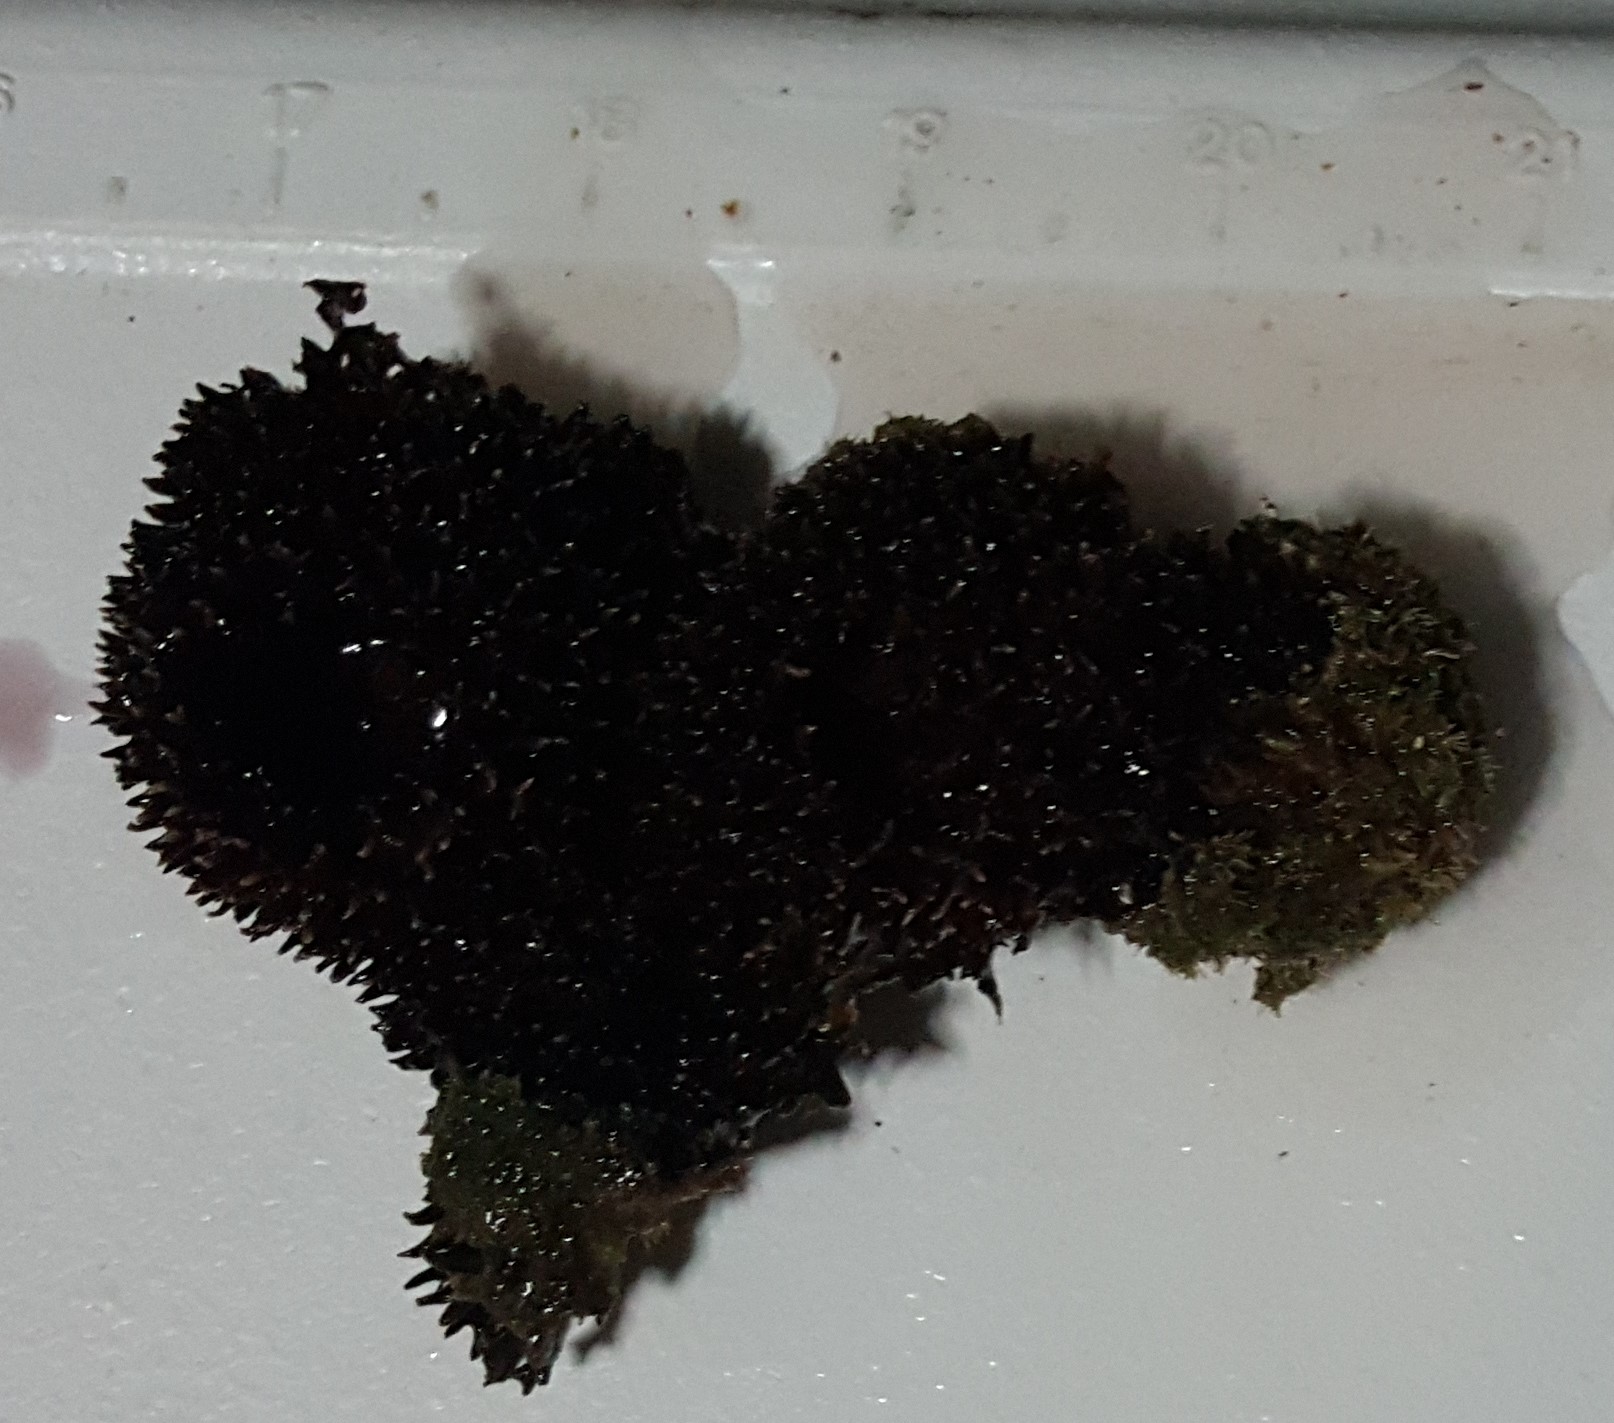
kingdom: Animalia
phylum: Porifera
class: Demospongiae
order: Poecilosclerida
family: Mycalidae
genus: Mycale
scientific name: Mycale laxissima
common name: Strawberry vase sponge
